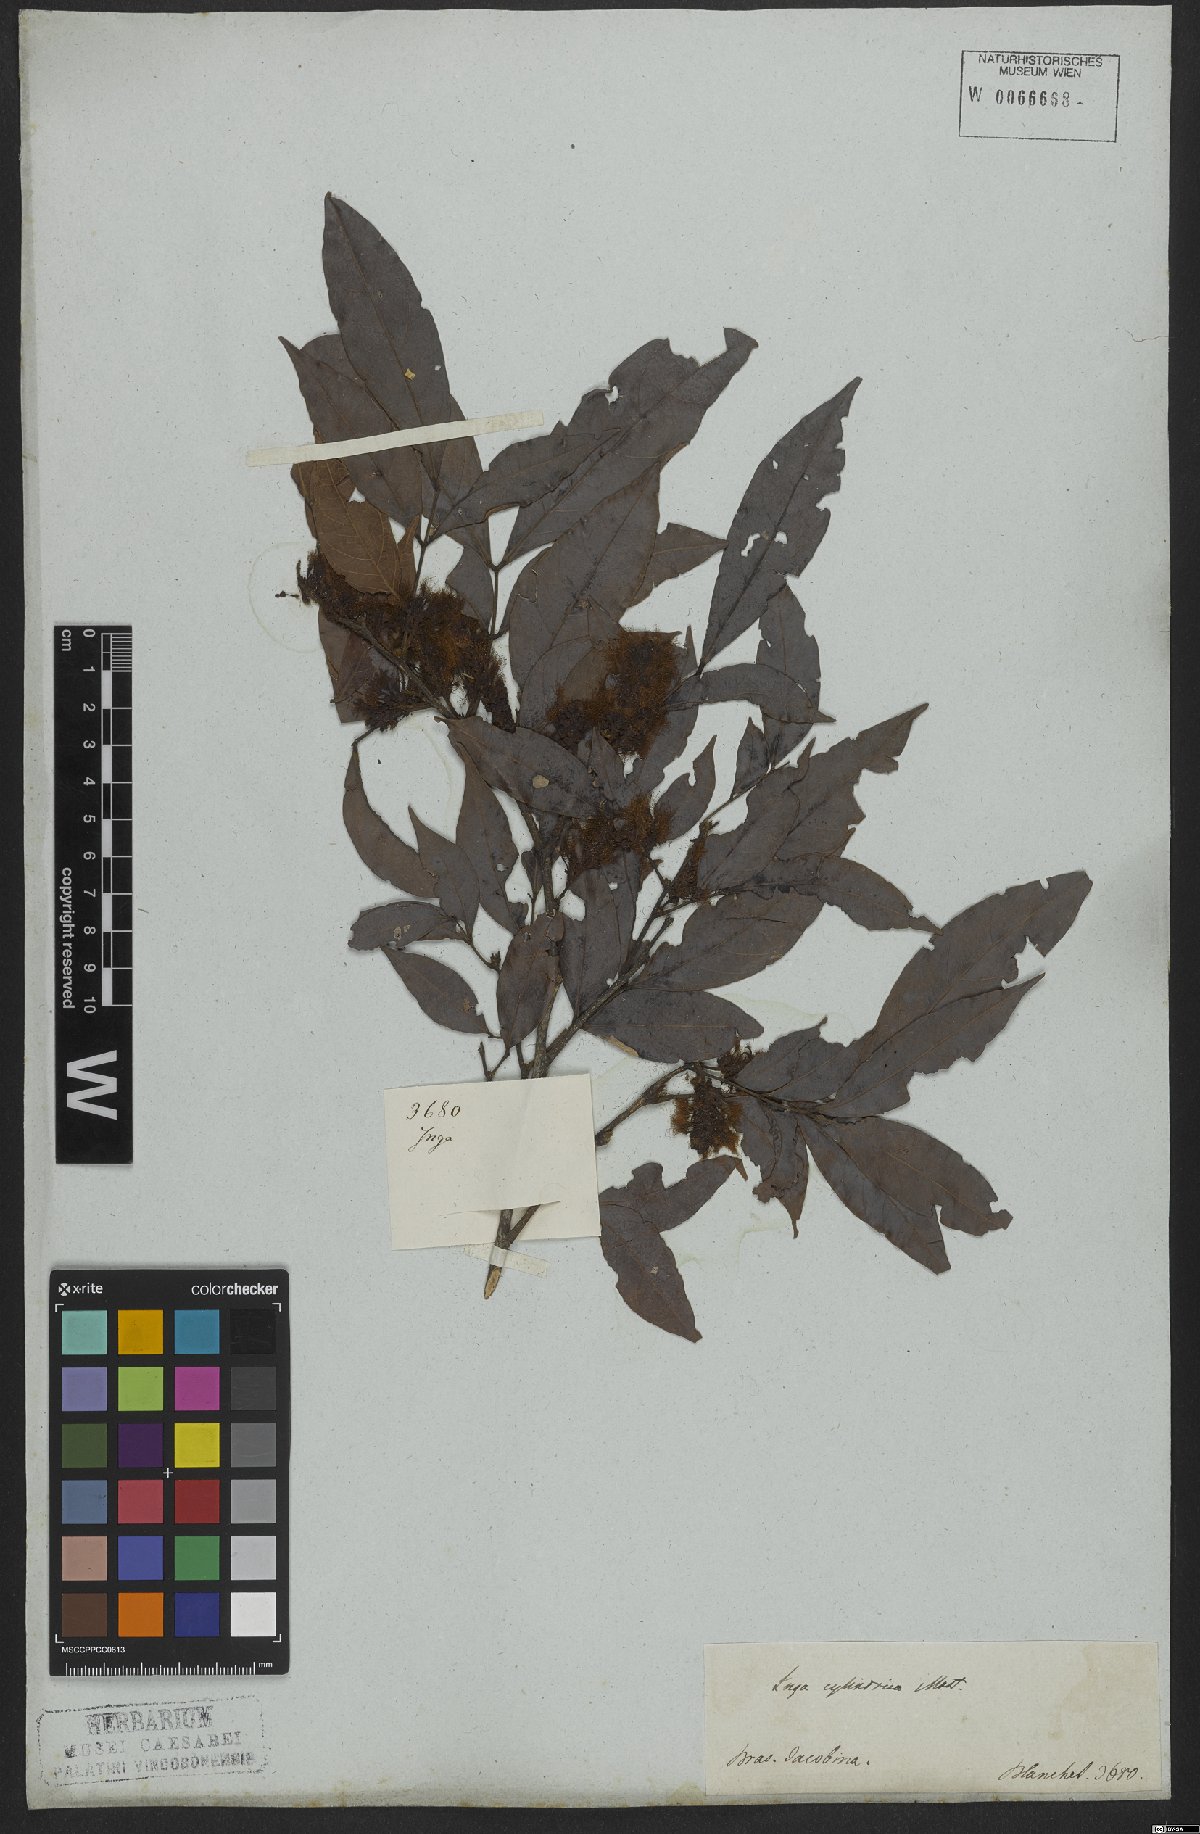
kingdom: Plantae
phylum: Tracheophyta
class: Magnoliopsida
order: Fabales
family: Fabaceae
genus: Inga
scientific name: Inga cylindrica
